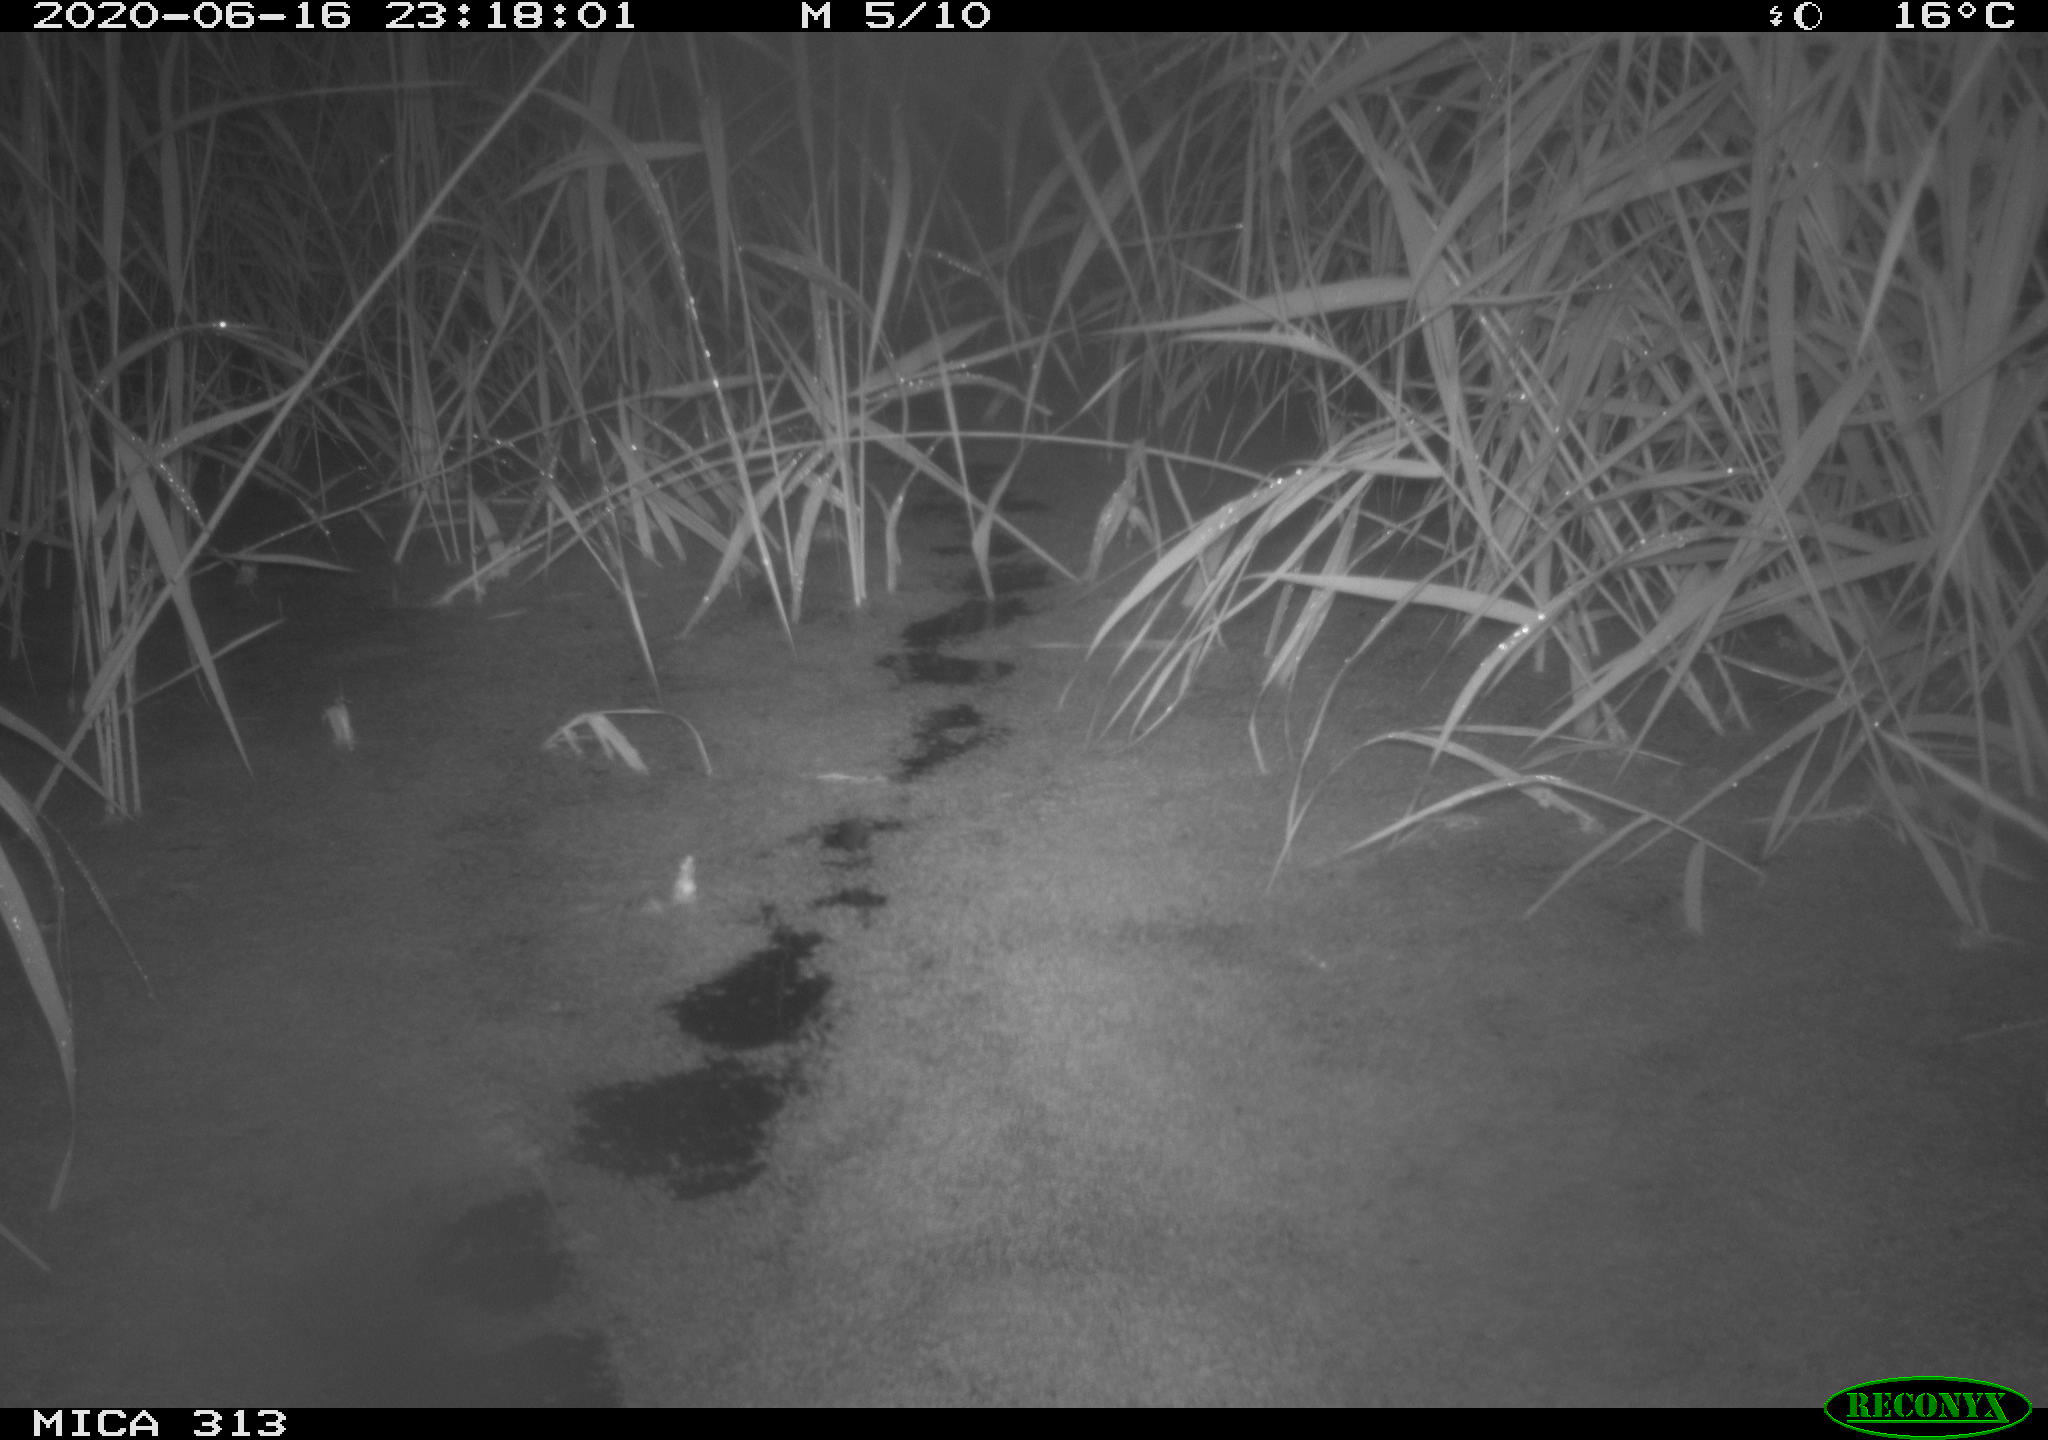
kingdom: Animalia
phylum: Chordata
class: Mammalia
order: Rodentia
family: Cricetidae
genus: Ondatra
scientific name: Ondatra zibethicus
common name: Muskrat
